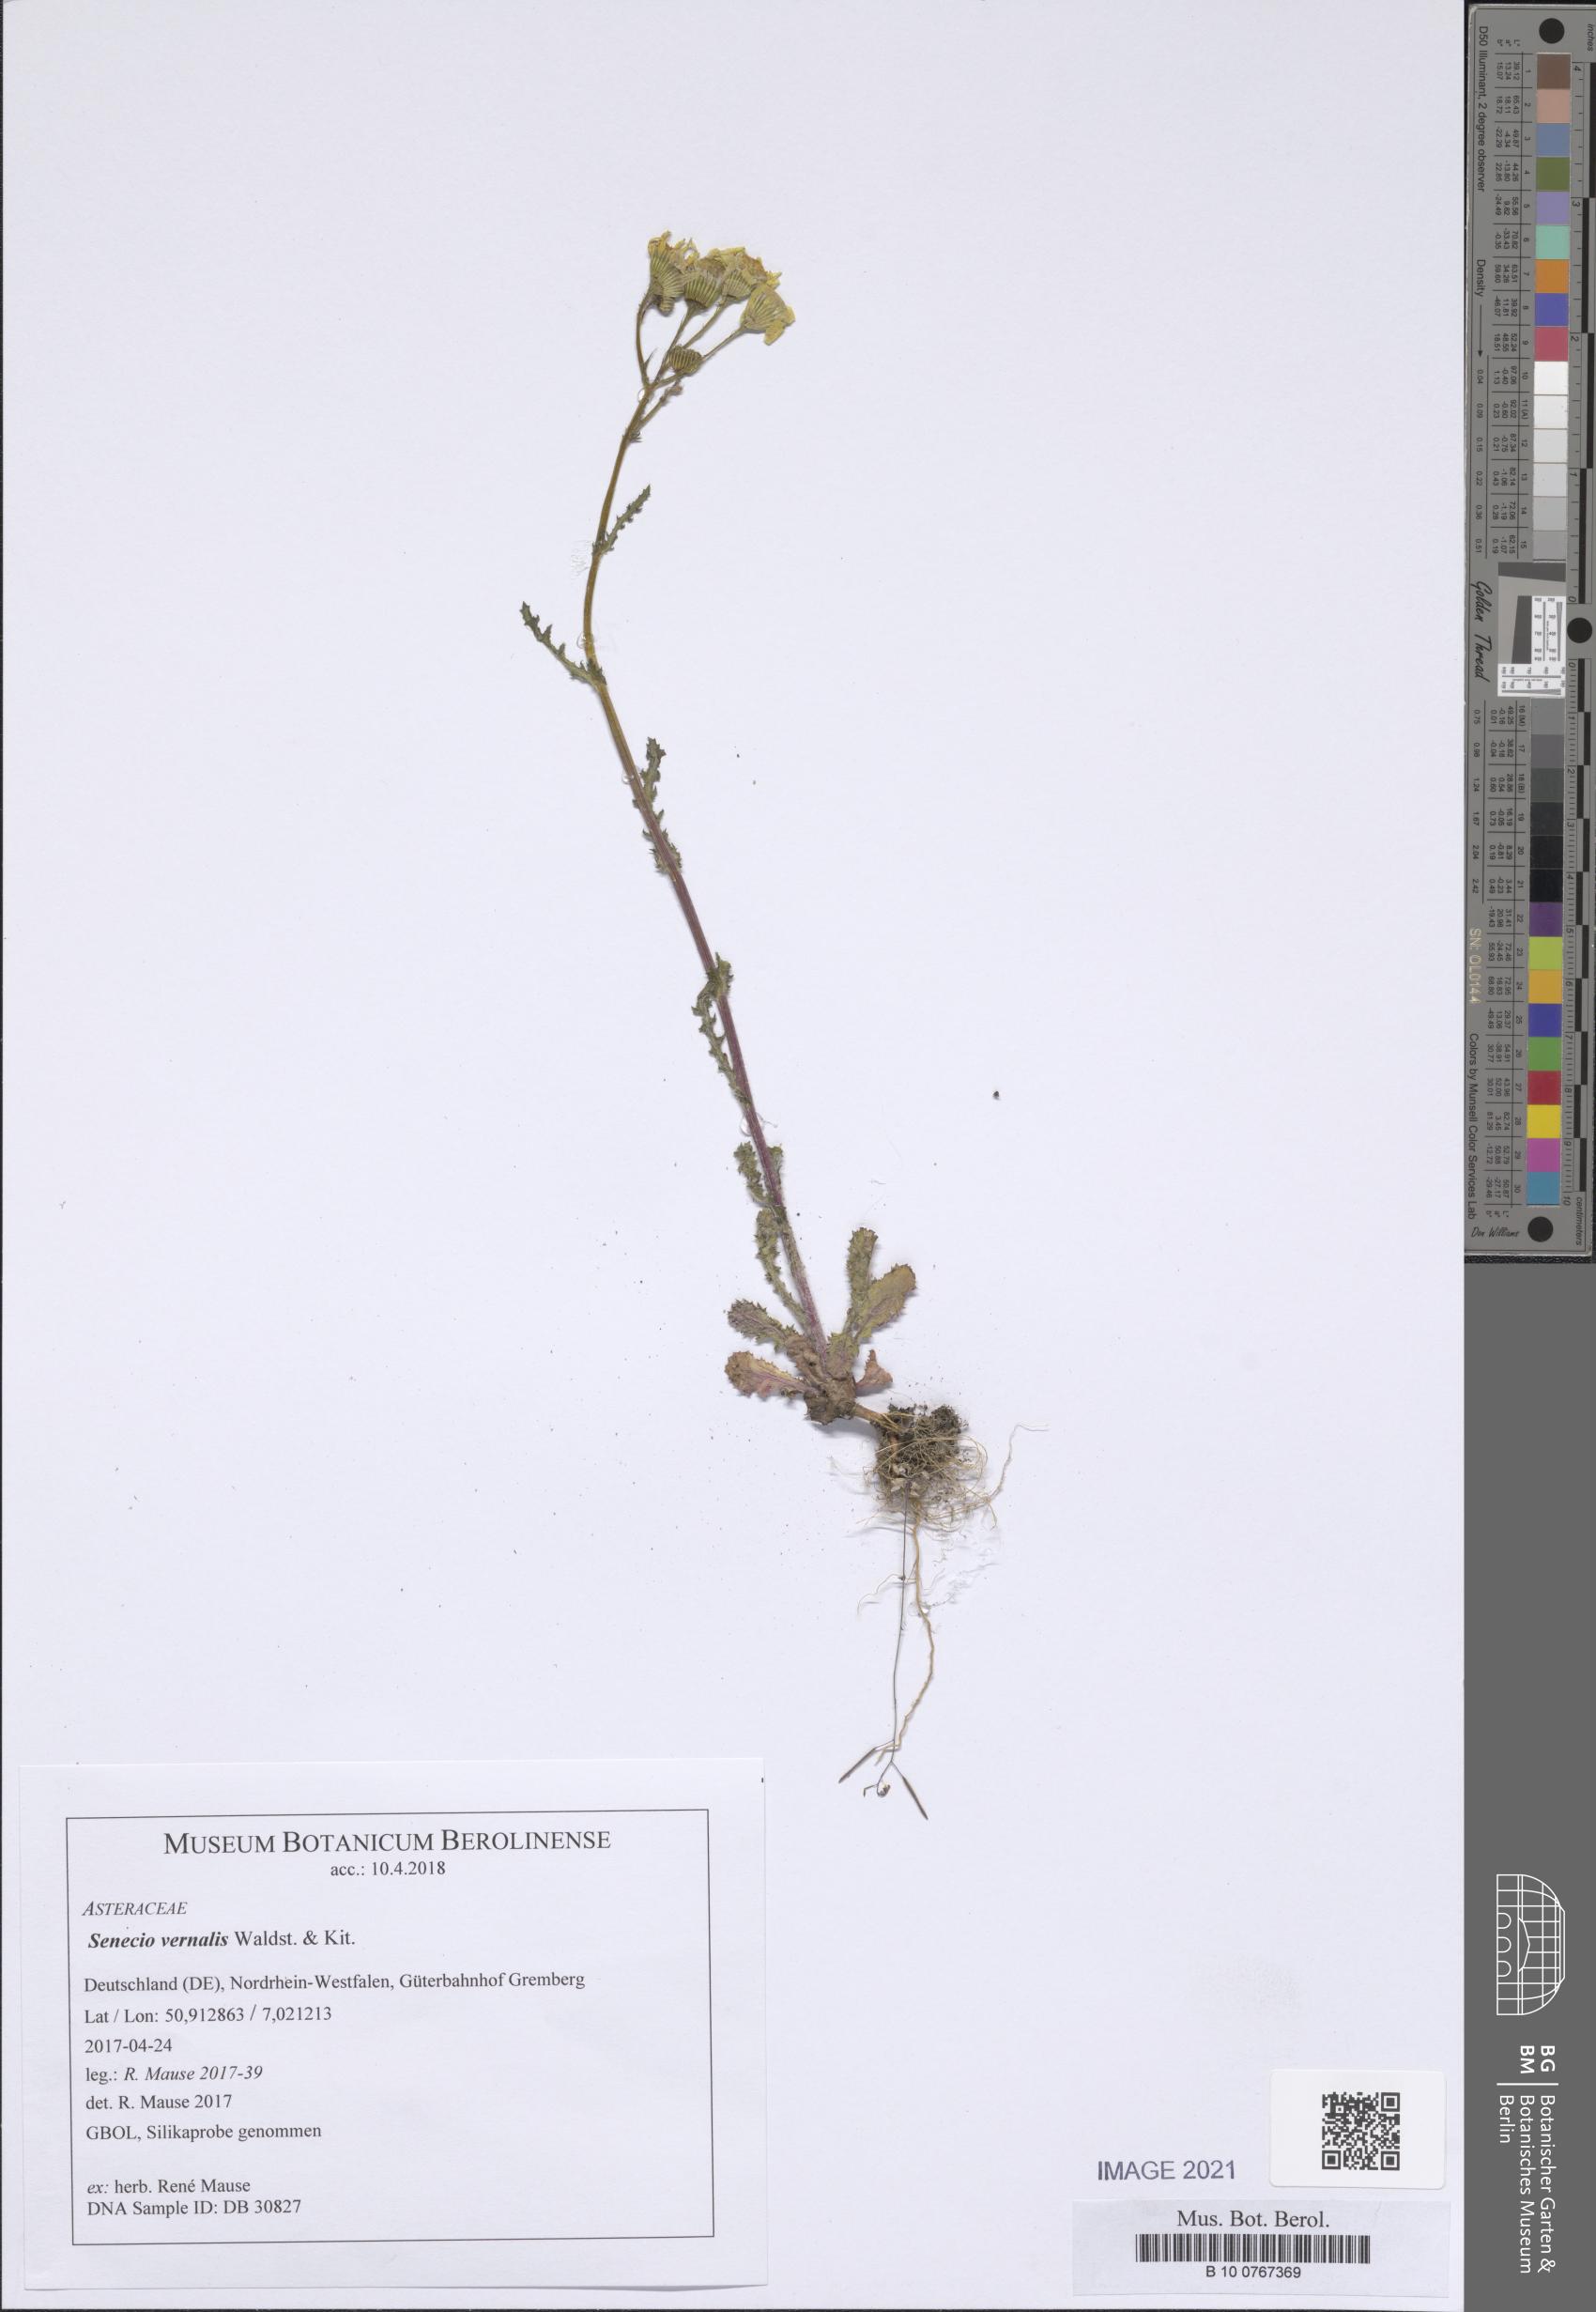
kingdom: Plantae
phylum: Tracheophyta
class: Magnoliopsida
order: Asterales
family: Asteraceae
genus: Senecio
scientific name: Senecio vernalis
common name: Eastern groundsel
